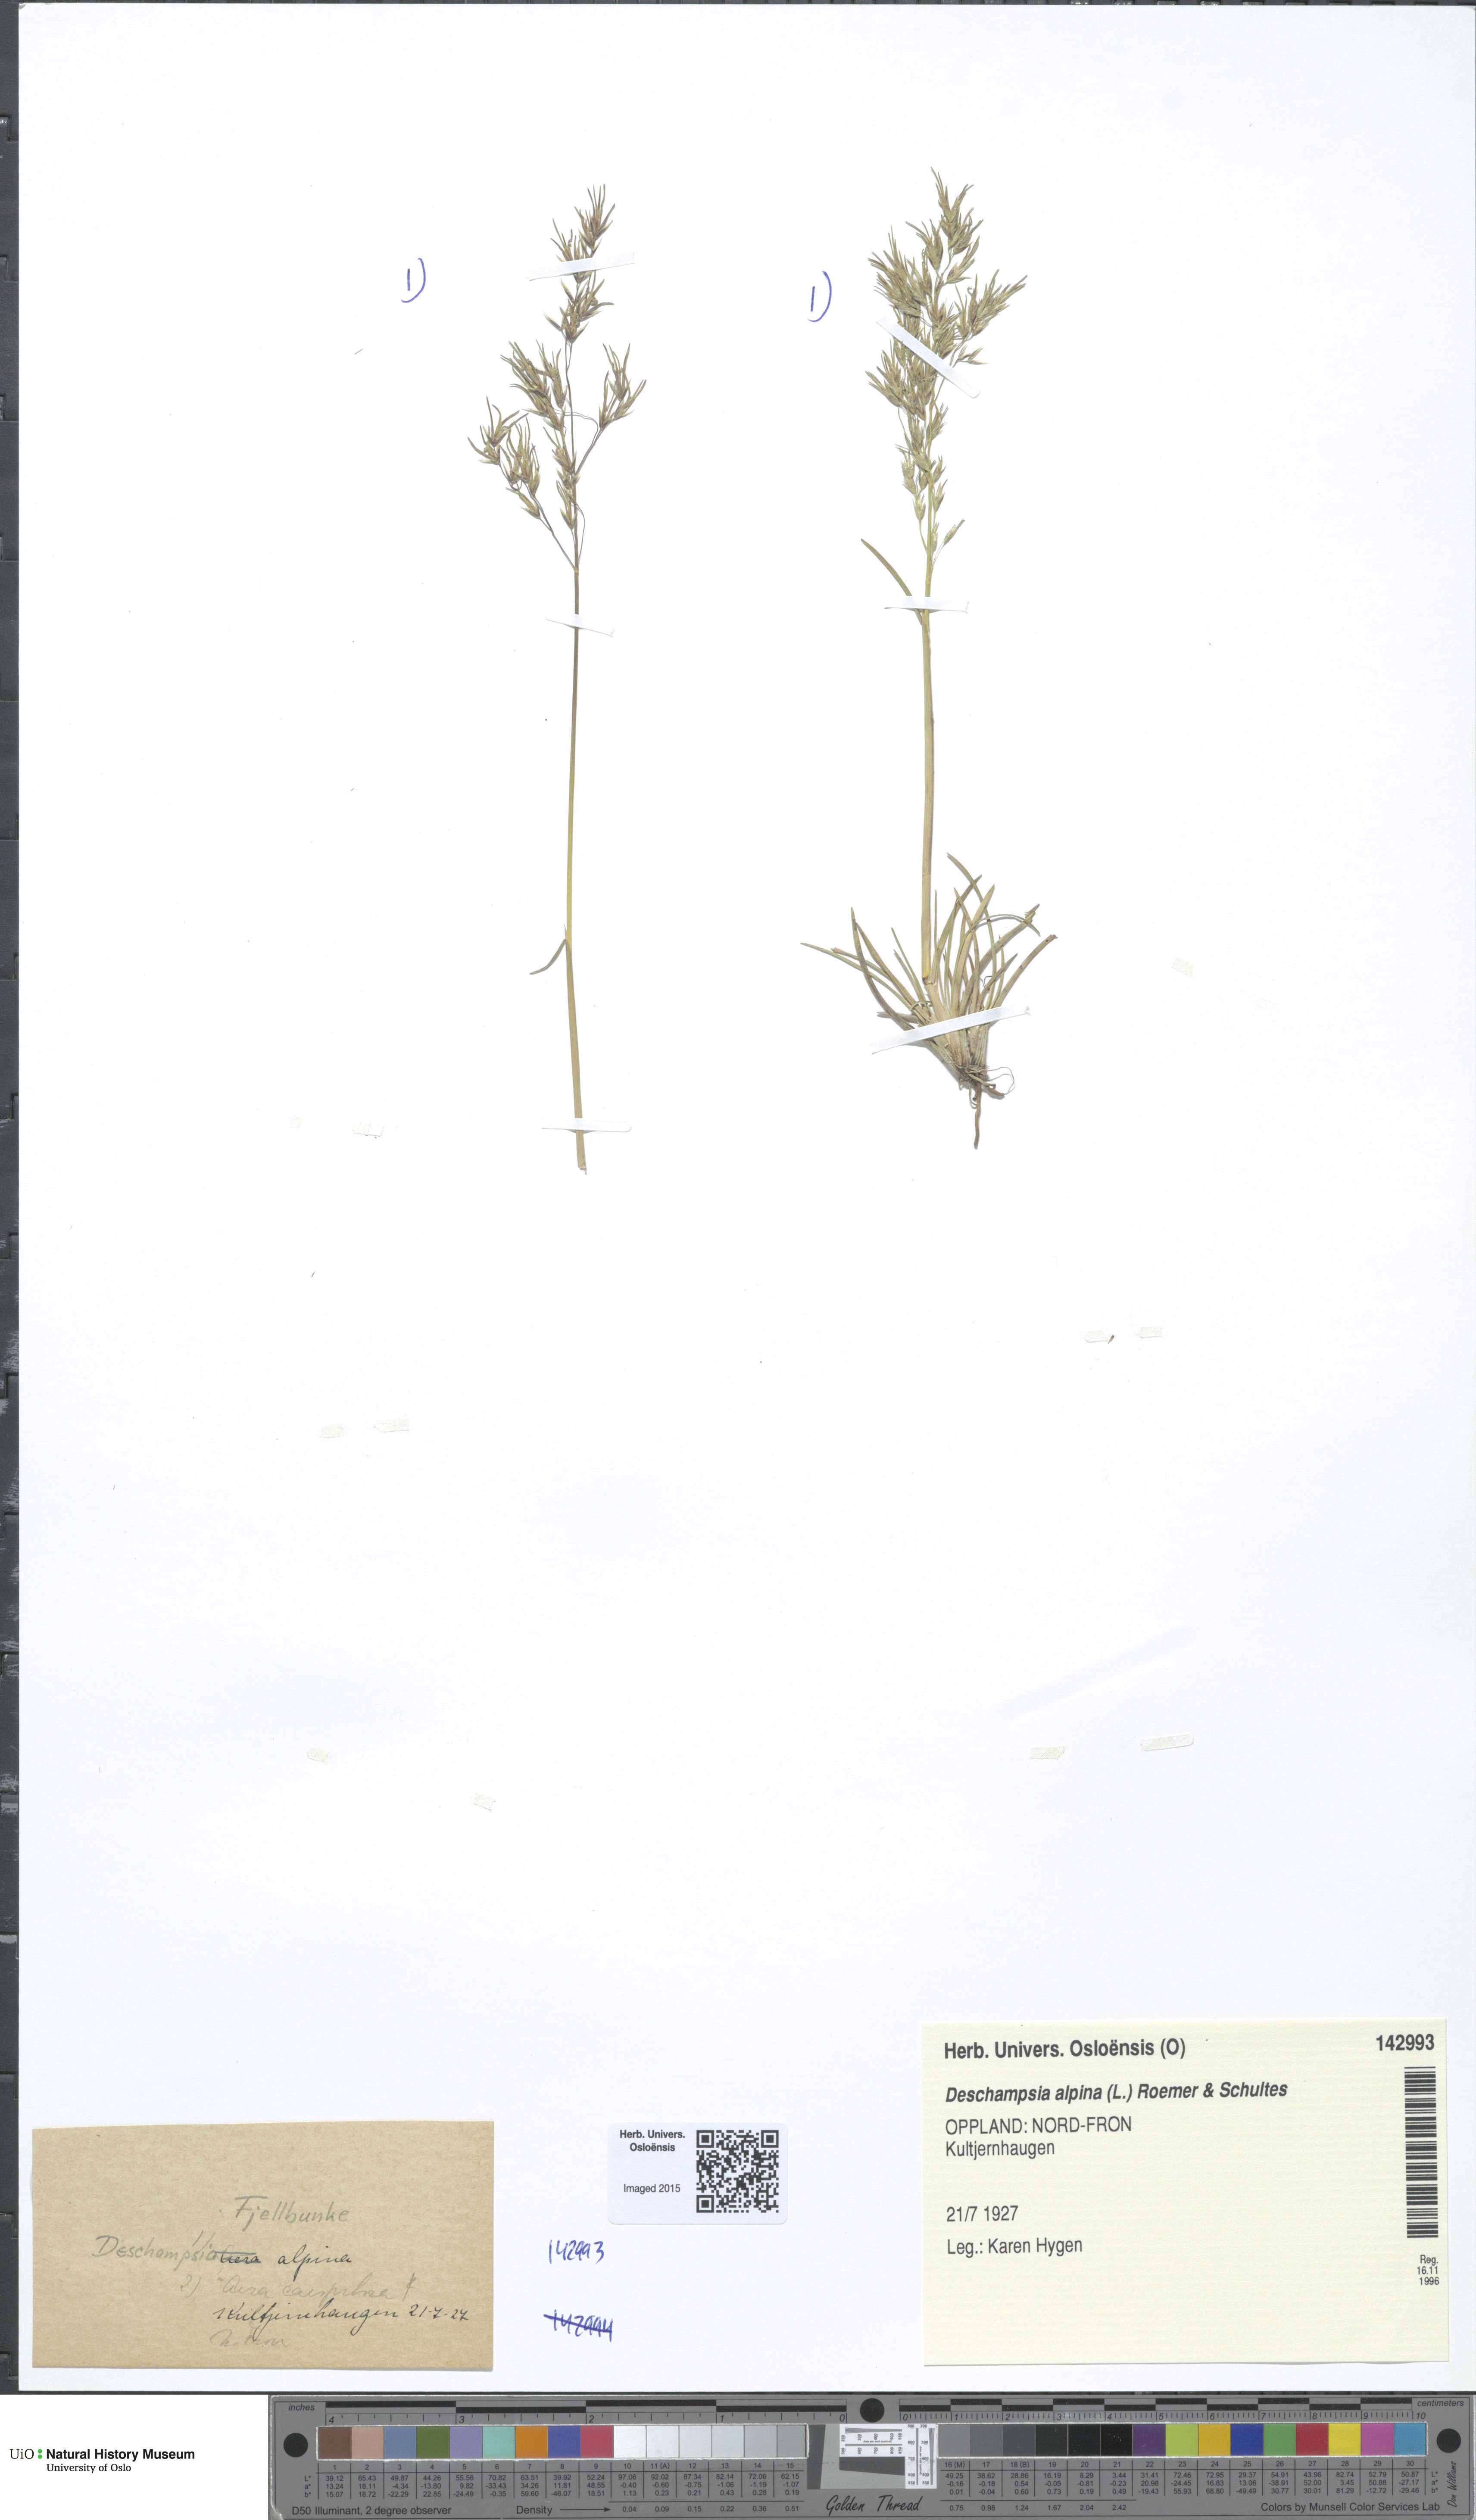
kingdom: Plantae
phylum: Tracheophyta
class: Liliopsida
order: Poales
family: Poaceae
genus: Deschampsia
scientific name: Deschampsia cespitosa
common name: Tufted hair-grass
